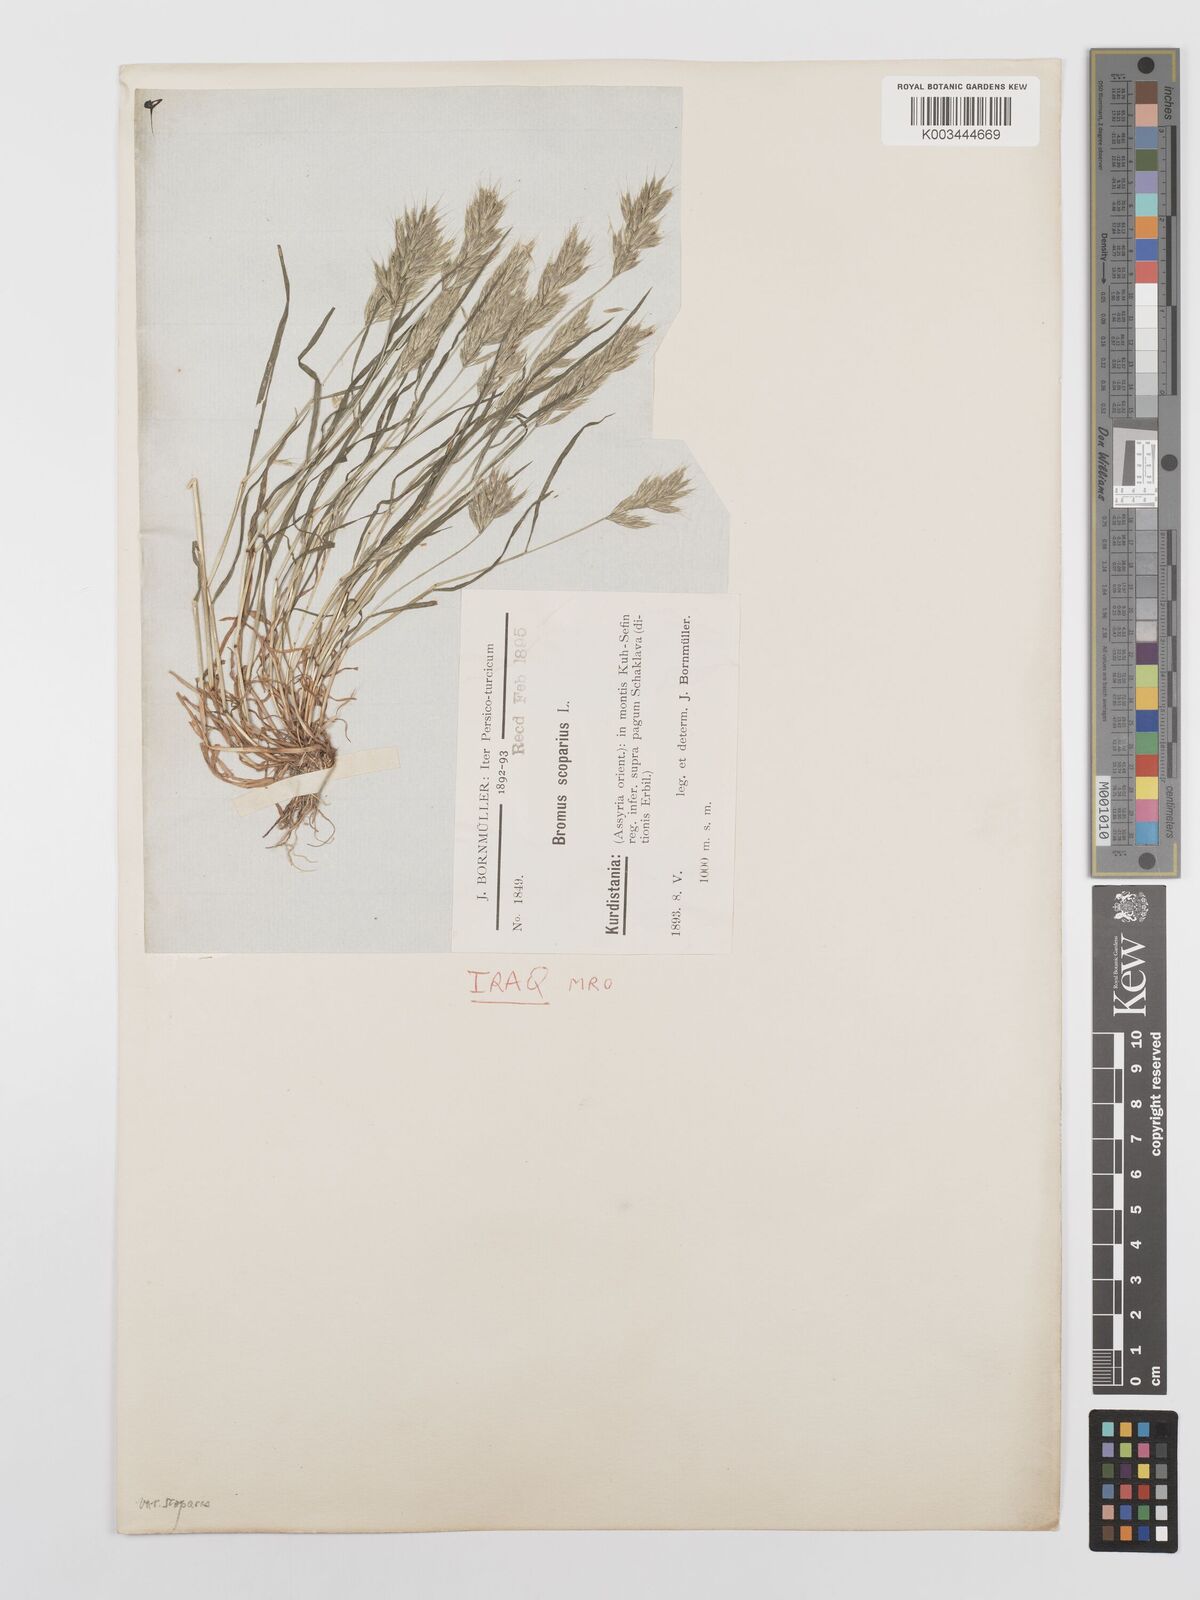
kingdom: Plantae
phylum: Tracheophyta
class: Liliopsida
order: Poales
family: Poaceae
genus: Bromus
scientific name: Bromus scoparius
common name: Broom brome
